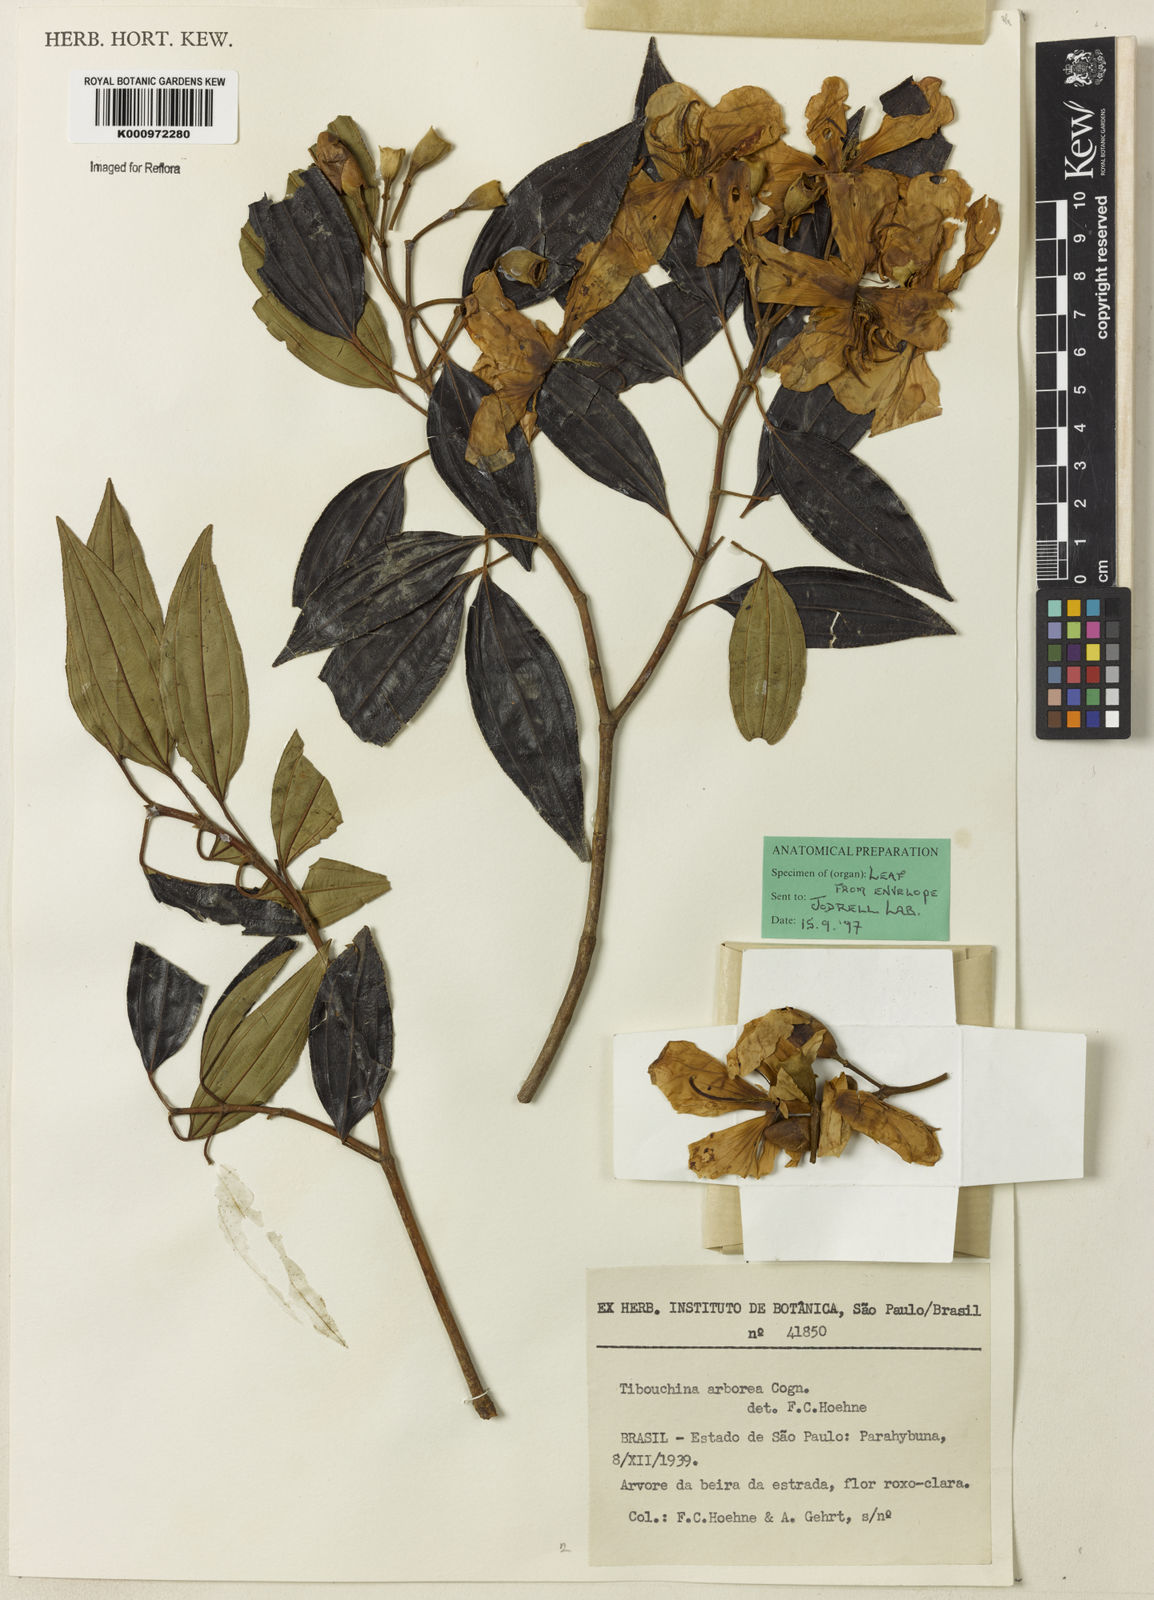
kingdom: Plantae
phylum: Tracheophyta
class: Magnoliopsida
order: Myrtales
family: Melastomataceae
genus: Pleroma
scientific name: Pleroma arboreum
